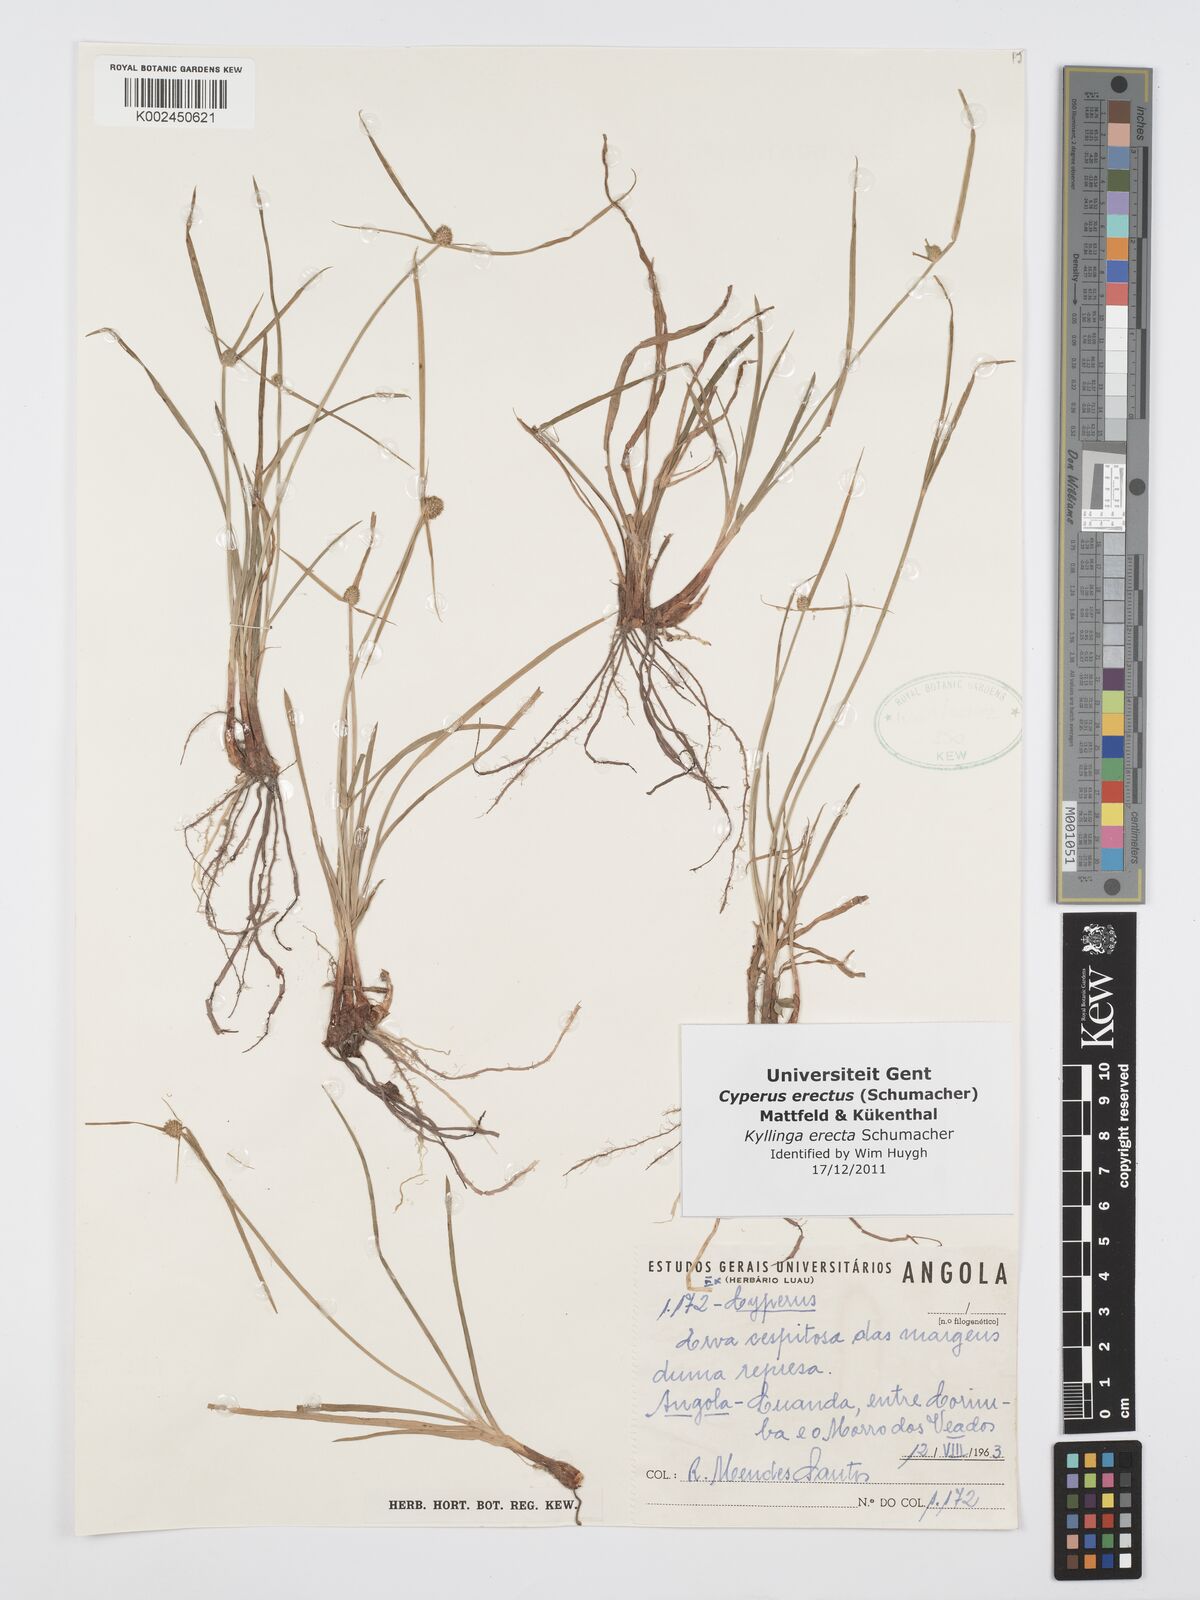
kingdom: Plantae
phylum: Tracheophyta
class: Liliopsida
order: Poales
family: Cyperaceae
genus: Cyperus
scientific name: Cyperus erectus
